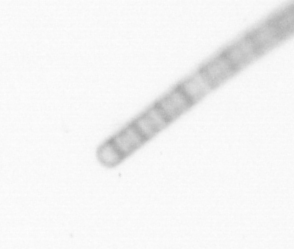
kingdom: Chromista
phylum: Ochrophyta
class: Bacillariophyceae
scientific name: Bacillariophyceae
